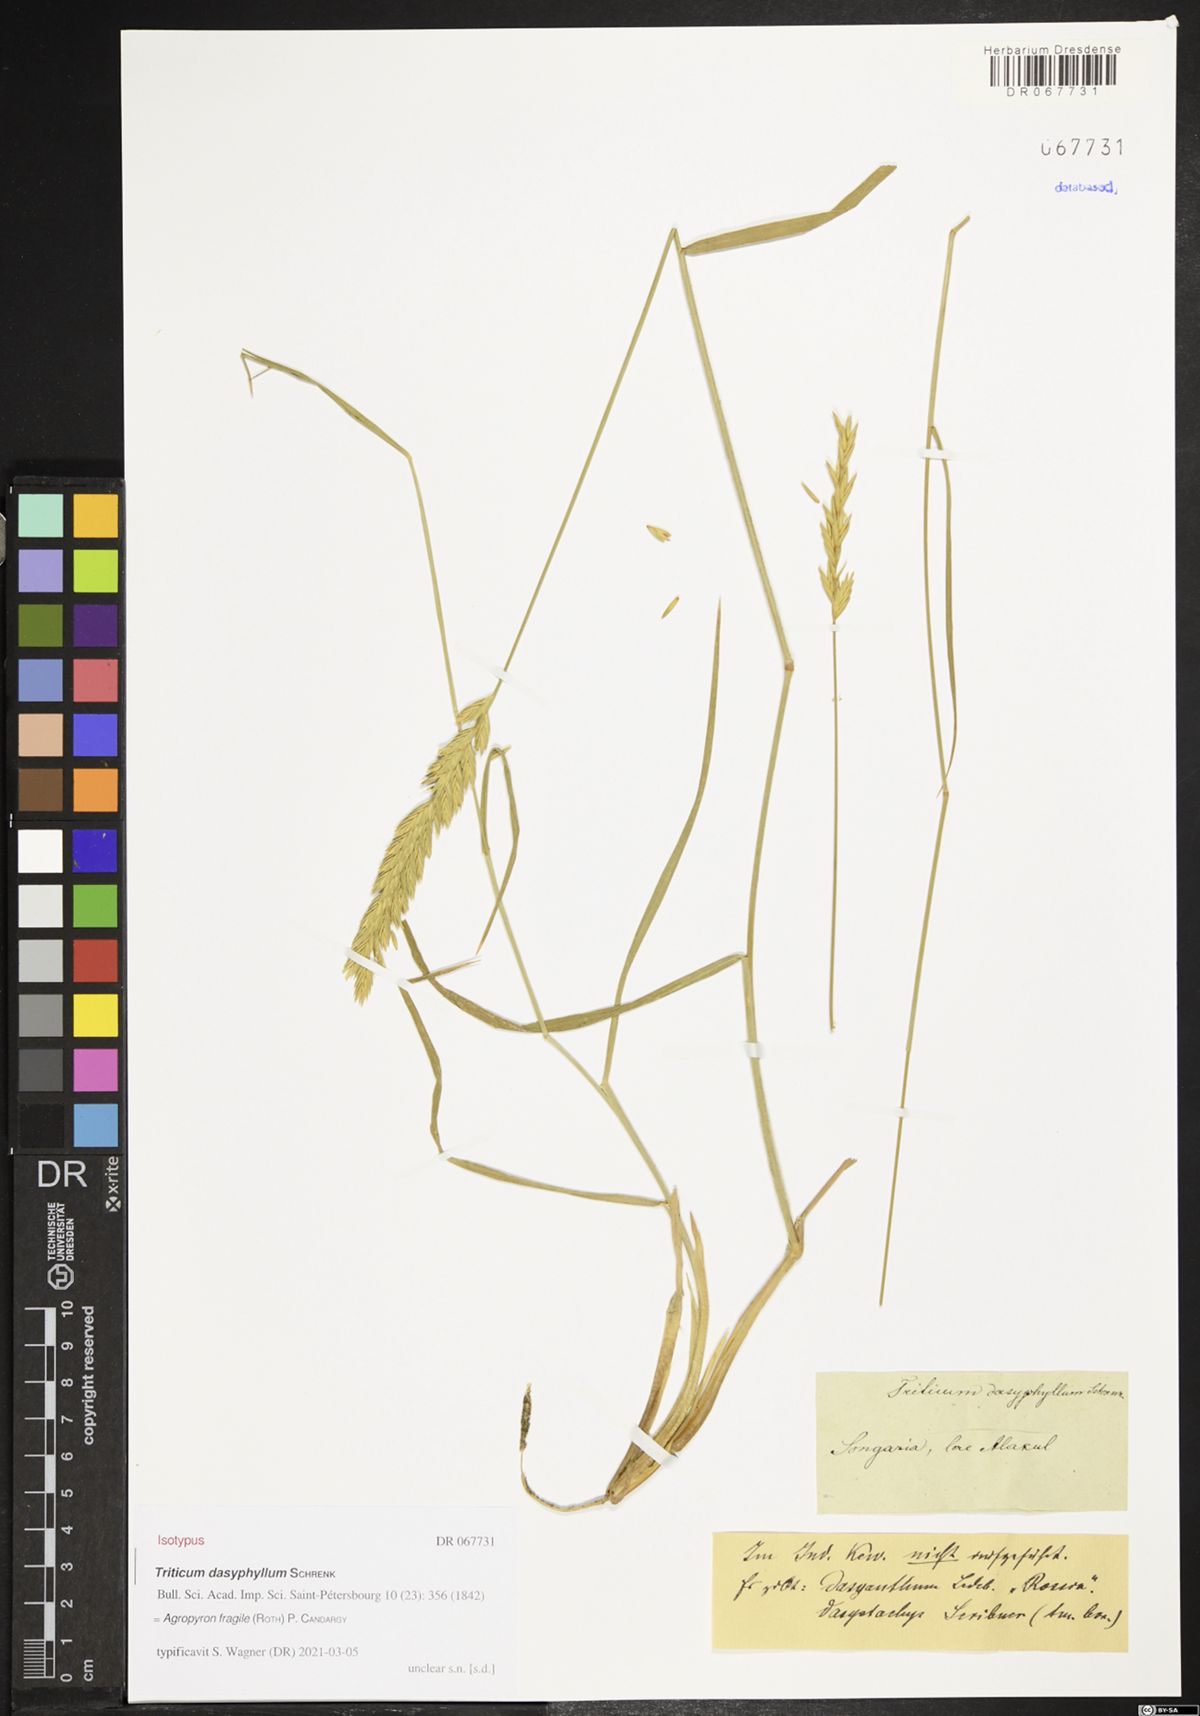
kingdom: Plantae
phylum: Tracheophyta
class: Liliopsida
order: Poales
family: Poaceae
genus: Agropyron
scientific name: Agropyron fragile
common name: Siberian wheatgrass
